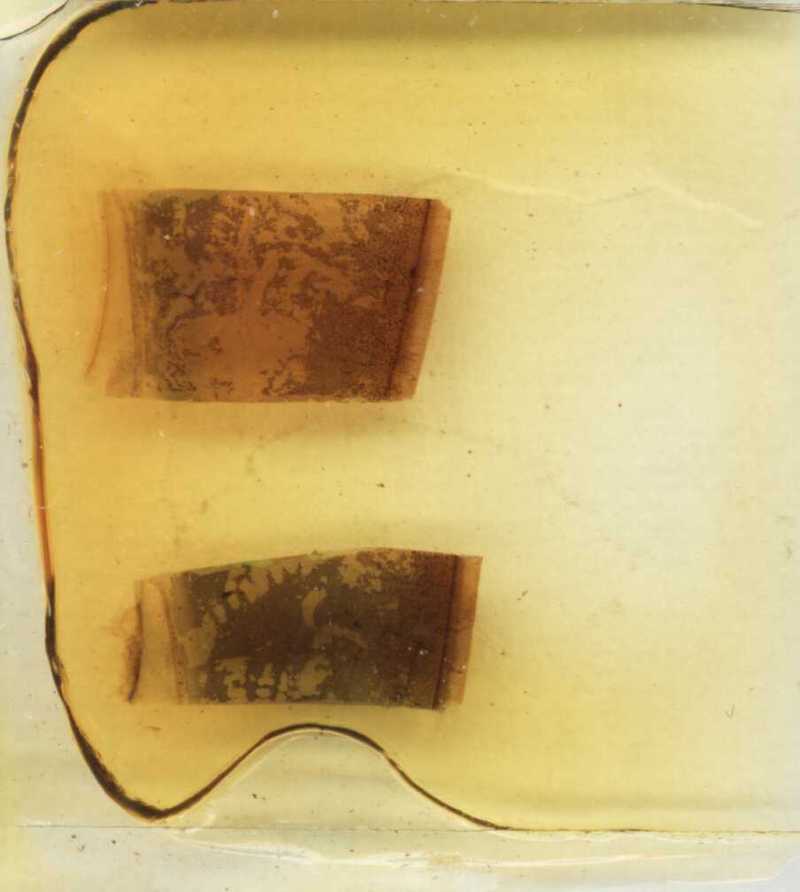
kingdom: Animalia
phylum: Arthropoda
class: Diplopoda
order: Sphaerotheriida
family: Zephroniidae
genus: Sphaeropoeus
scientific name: Sphaeropoeus malaccanus
